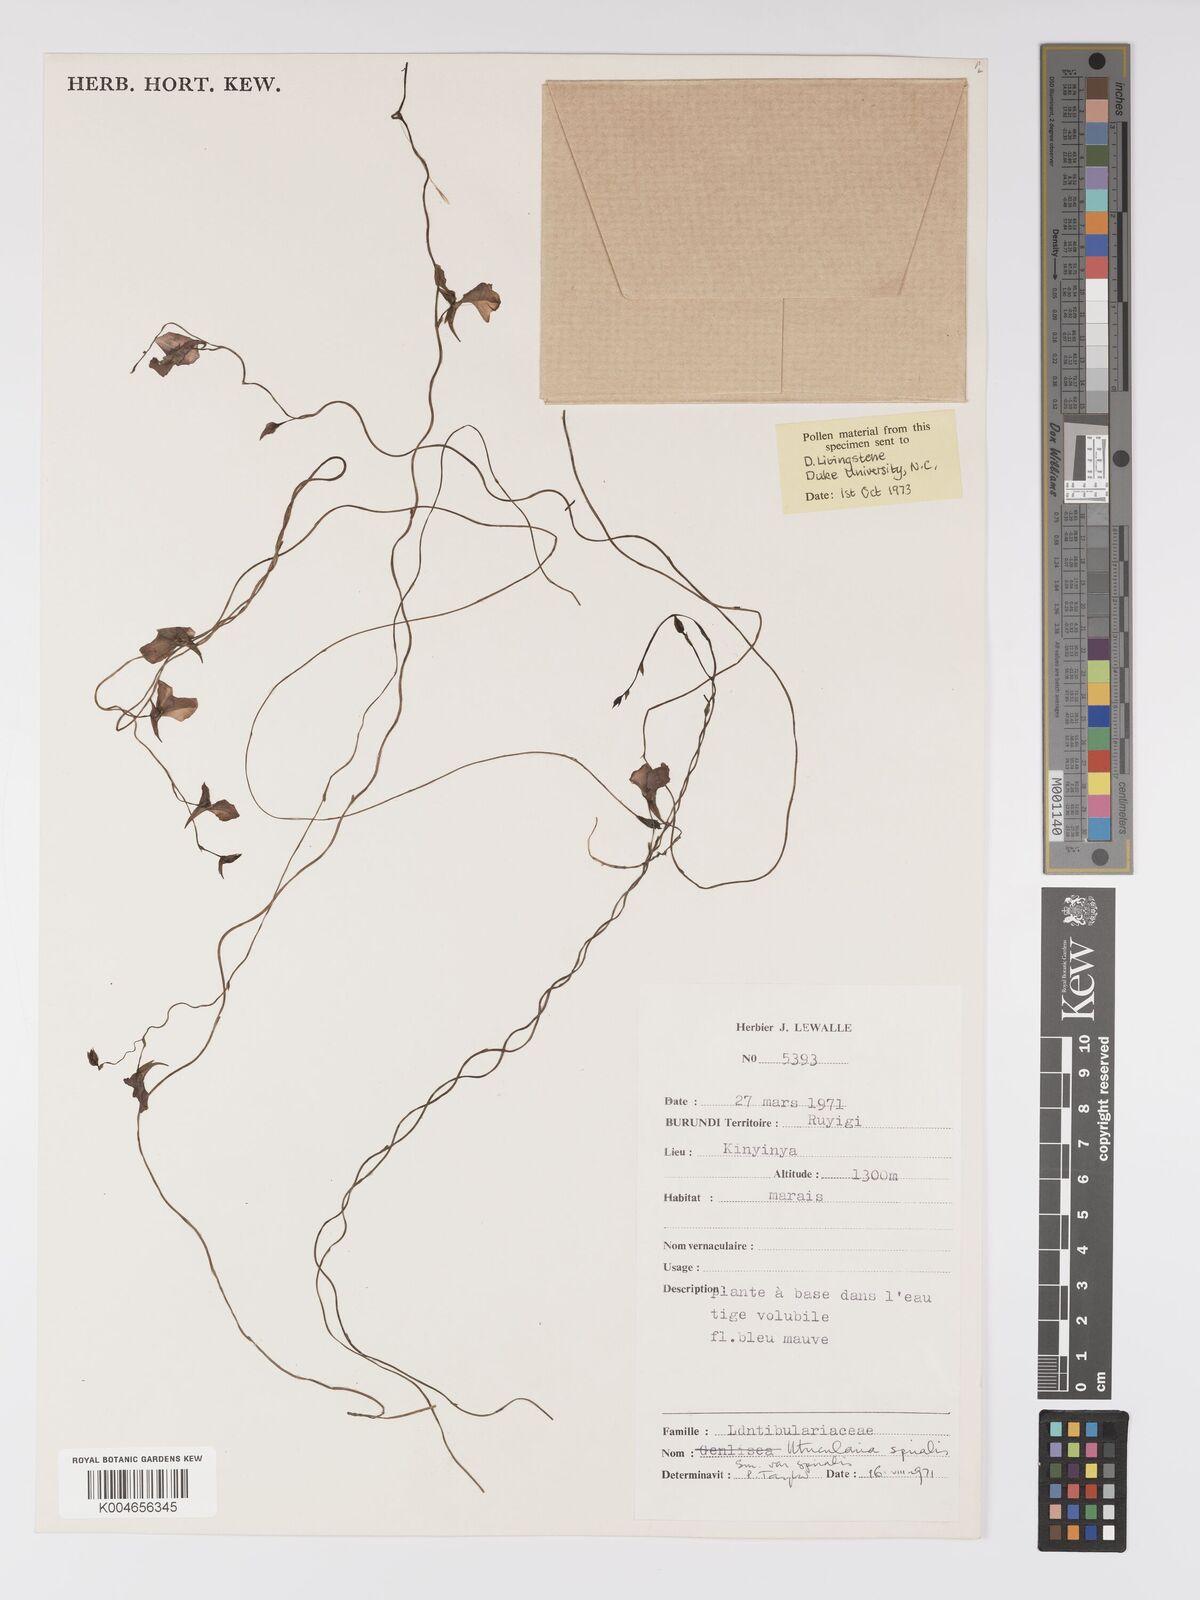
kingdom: Plantae
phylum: Tracheophyta
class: Magnoliopsida
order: Lamiales
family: Lentibulariaceae
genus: Utricularia
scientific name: Utricularia spiralis
